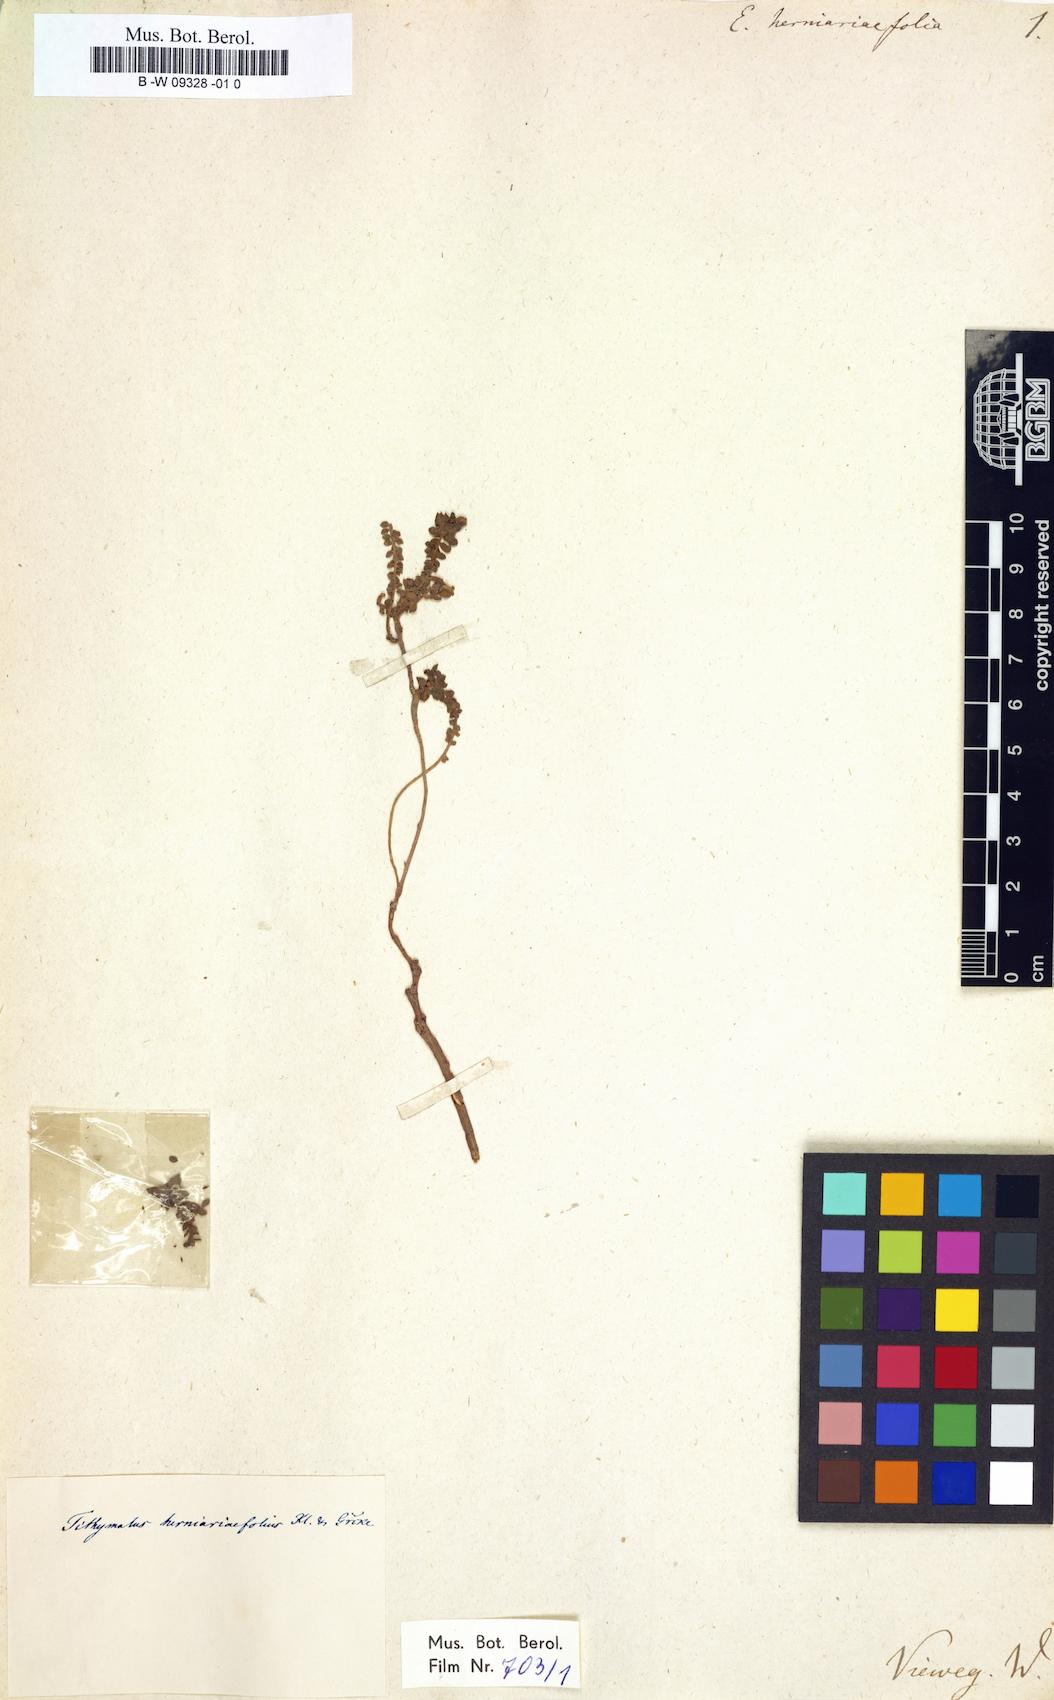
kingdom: Plantae
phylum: Tracheophyta
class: Magnoliopsida
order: Malpighiales
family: Euphorbiaceae
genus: Euphorbia
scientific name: Euphorbia herniariifolia
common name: Herniaria-leaf spurge
